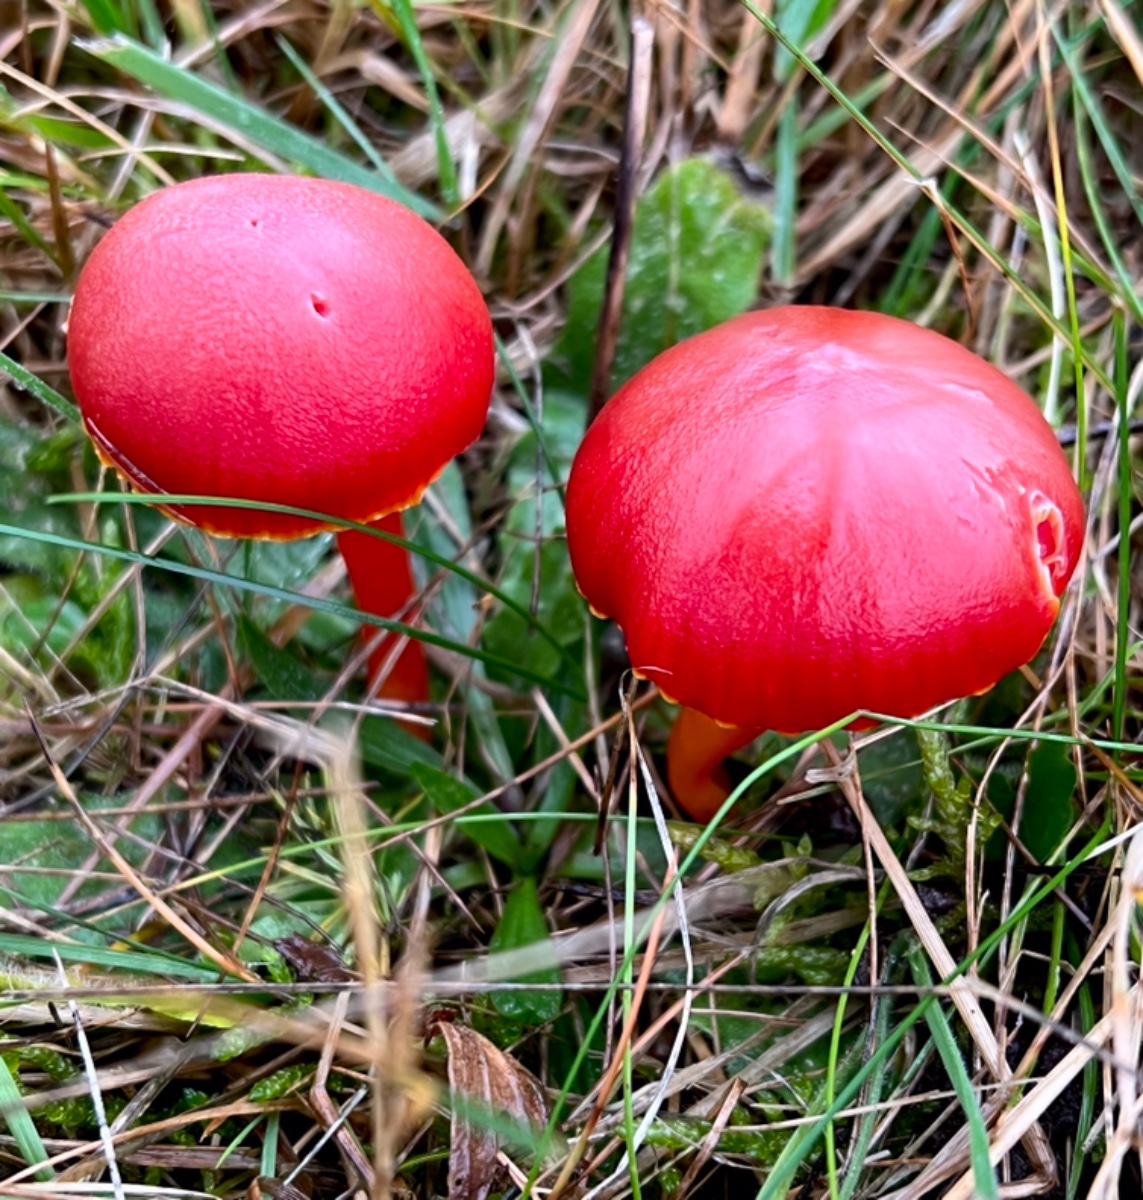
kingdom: Fungi
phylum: Basidiomycota
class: Agaricomycetes
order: Agaricales
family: Hygrophoraceae
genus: Hygrocybe
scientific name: Hygrocybe coccinea
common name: cinnober-vokshat
